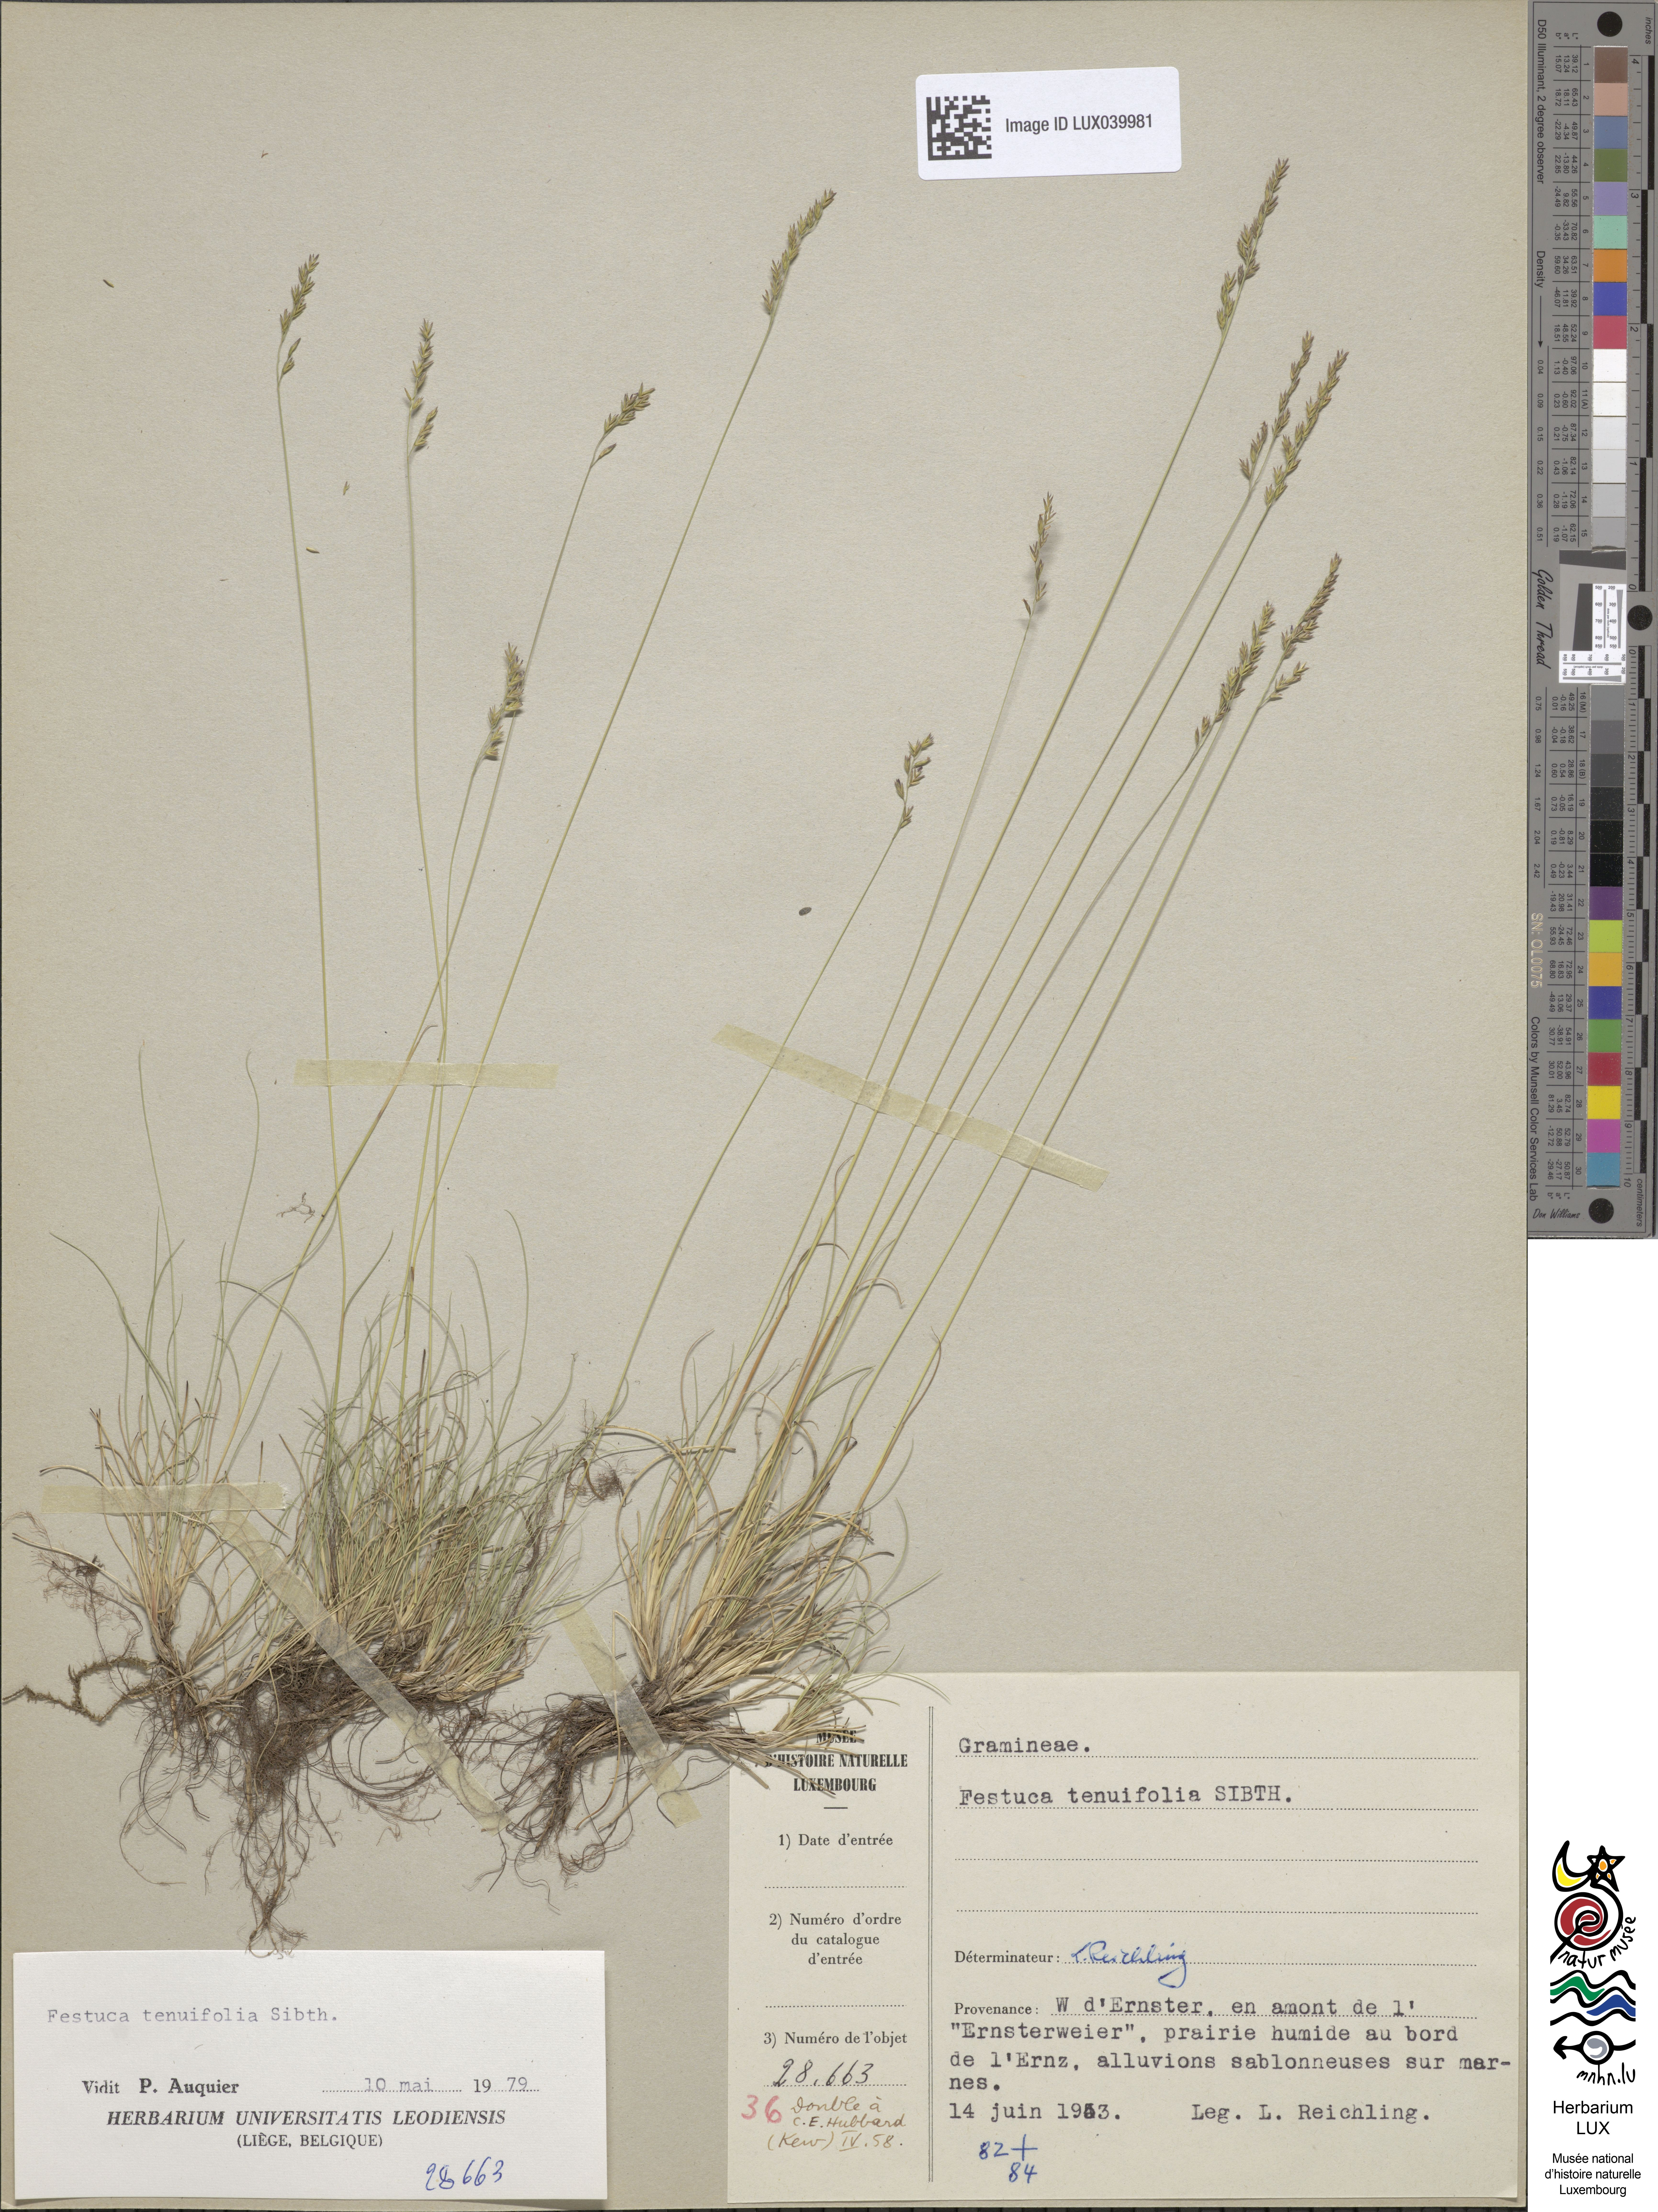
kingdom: Plantae
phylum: Tracheophyta
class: Liliopsida
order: Poales
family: Poaceae
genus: Festuca
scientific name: Festuca filiformis
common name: Fine-leaved sheep's-fescue
